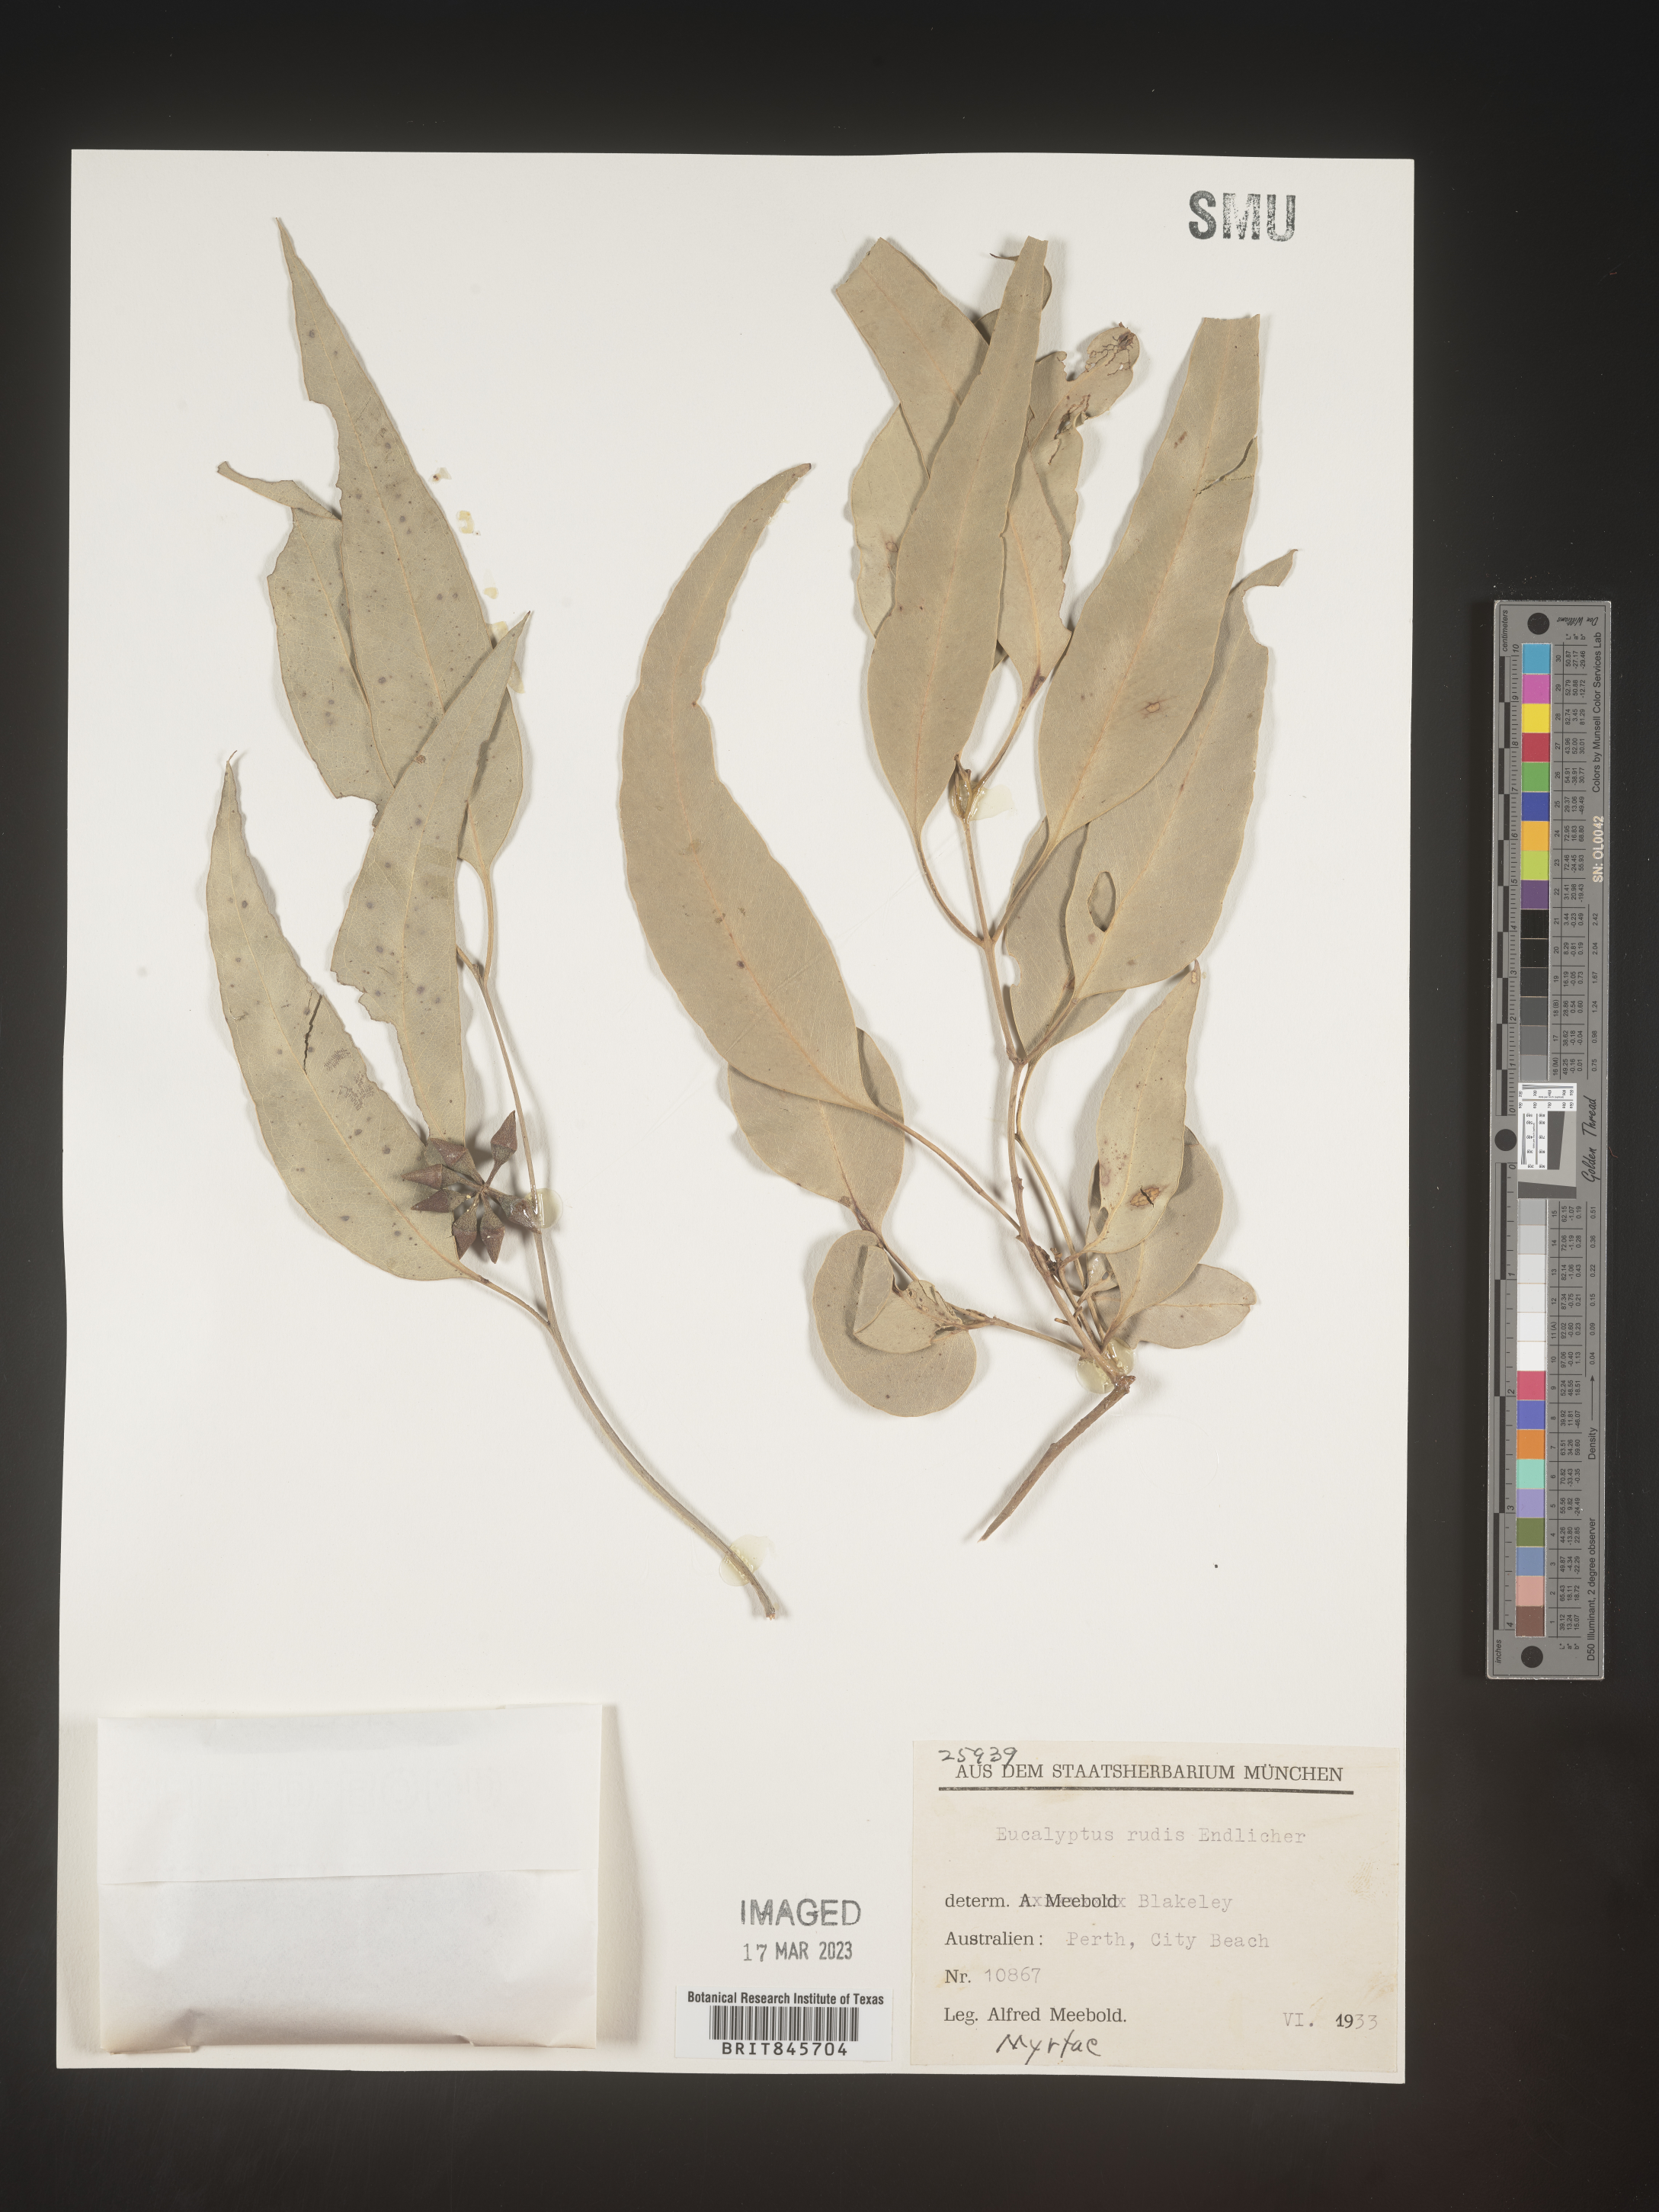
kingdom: Plantae
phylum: Tracheophyta
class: Magnoliopsida
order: Myrtales
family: Myrtaceae
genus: Eucalyptus
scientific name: Eucalyptus
